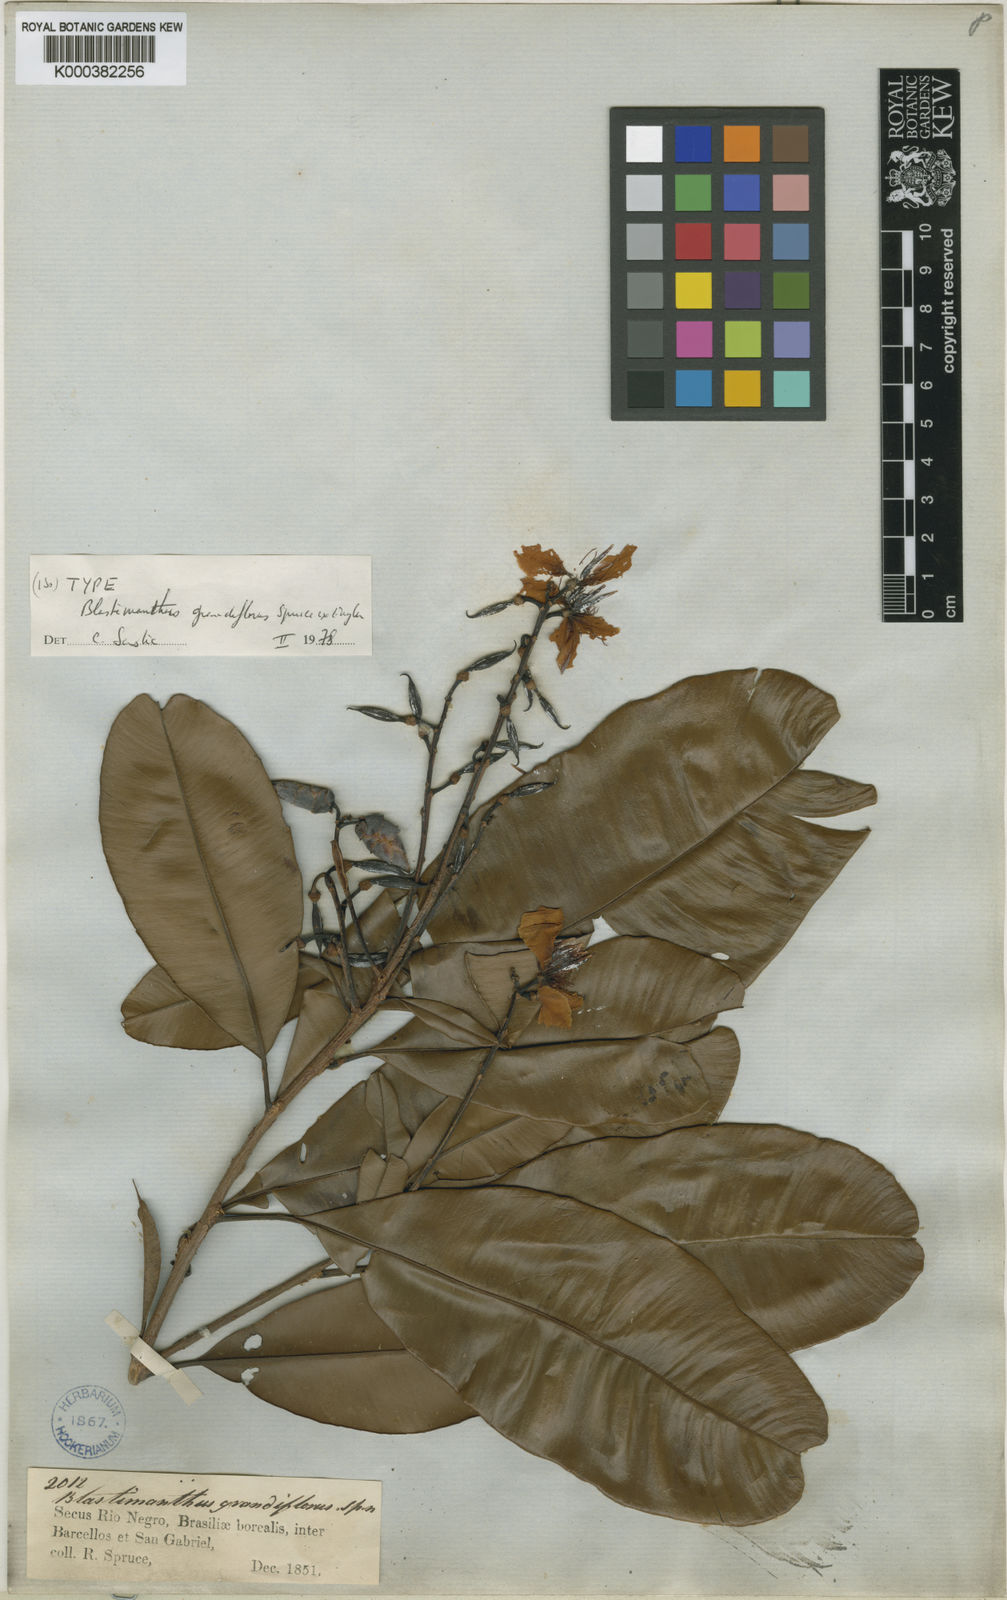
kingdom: Plantae
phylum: Tracheophyta
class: Magnoliopsida
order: Malpighiales
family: Ochnaceae
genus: Blastemanthus
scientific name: Blastemanthus
